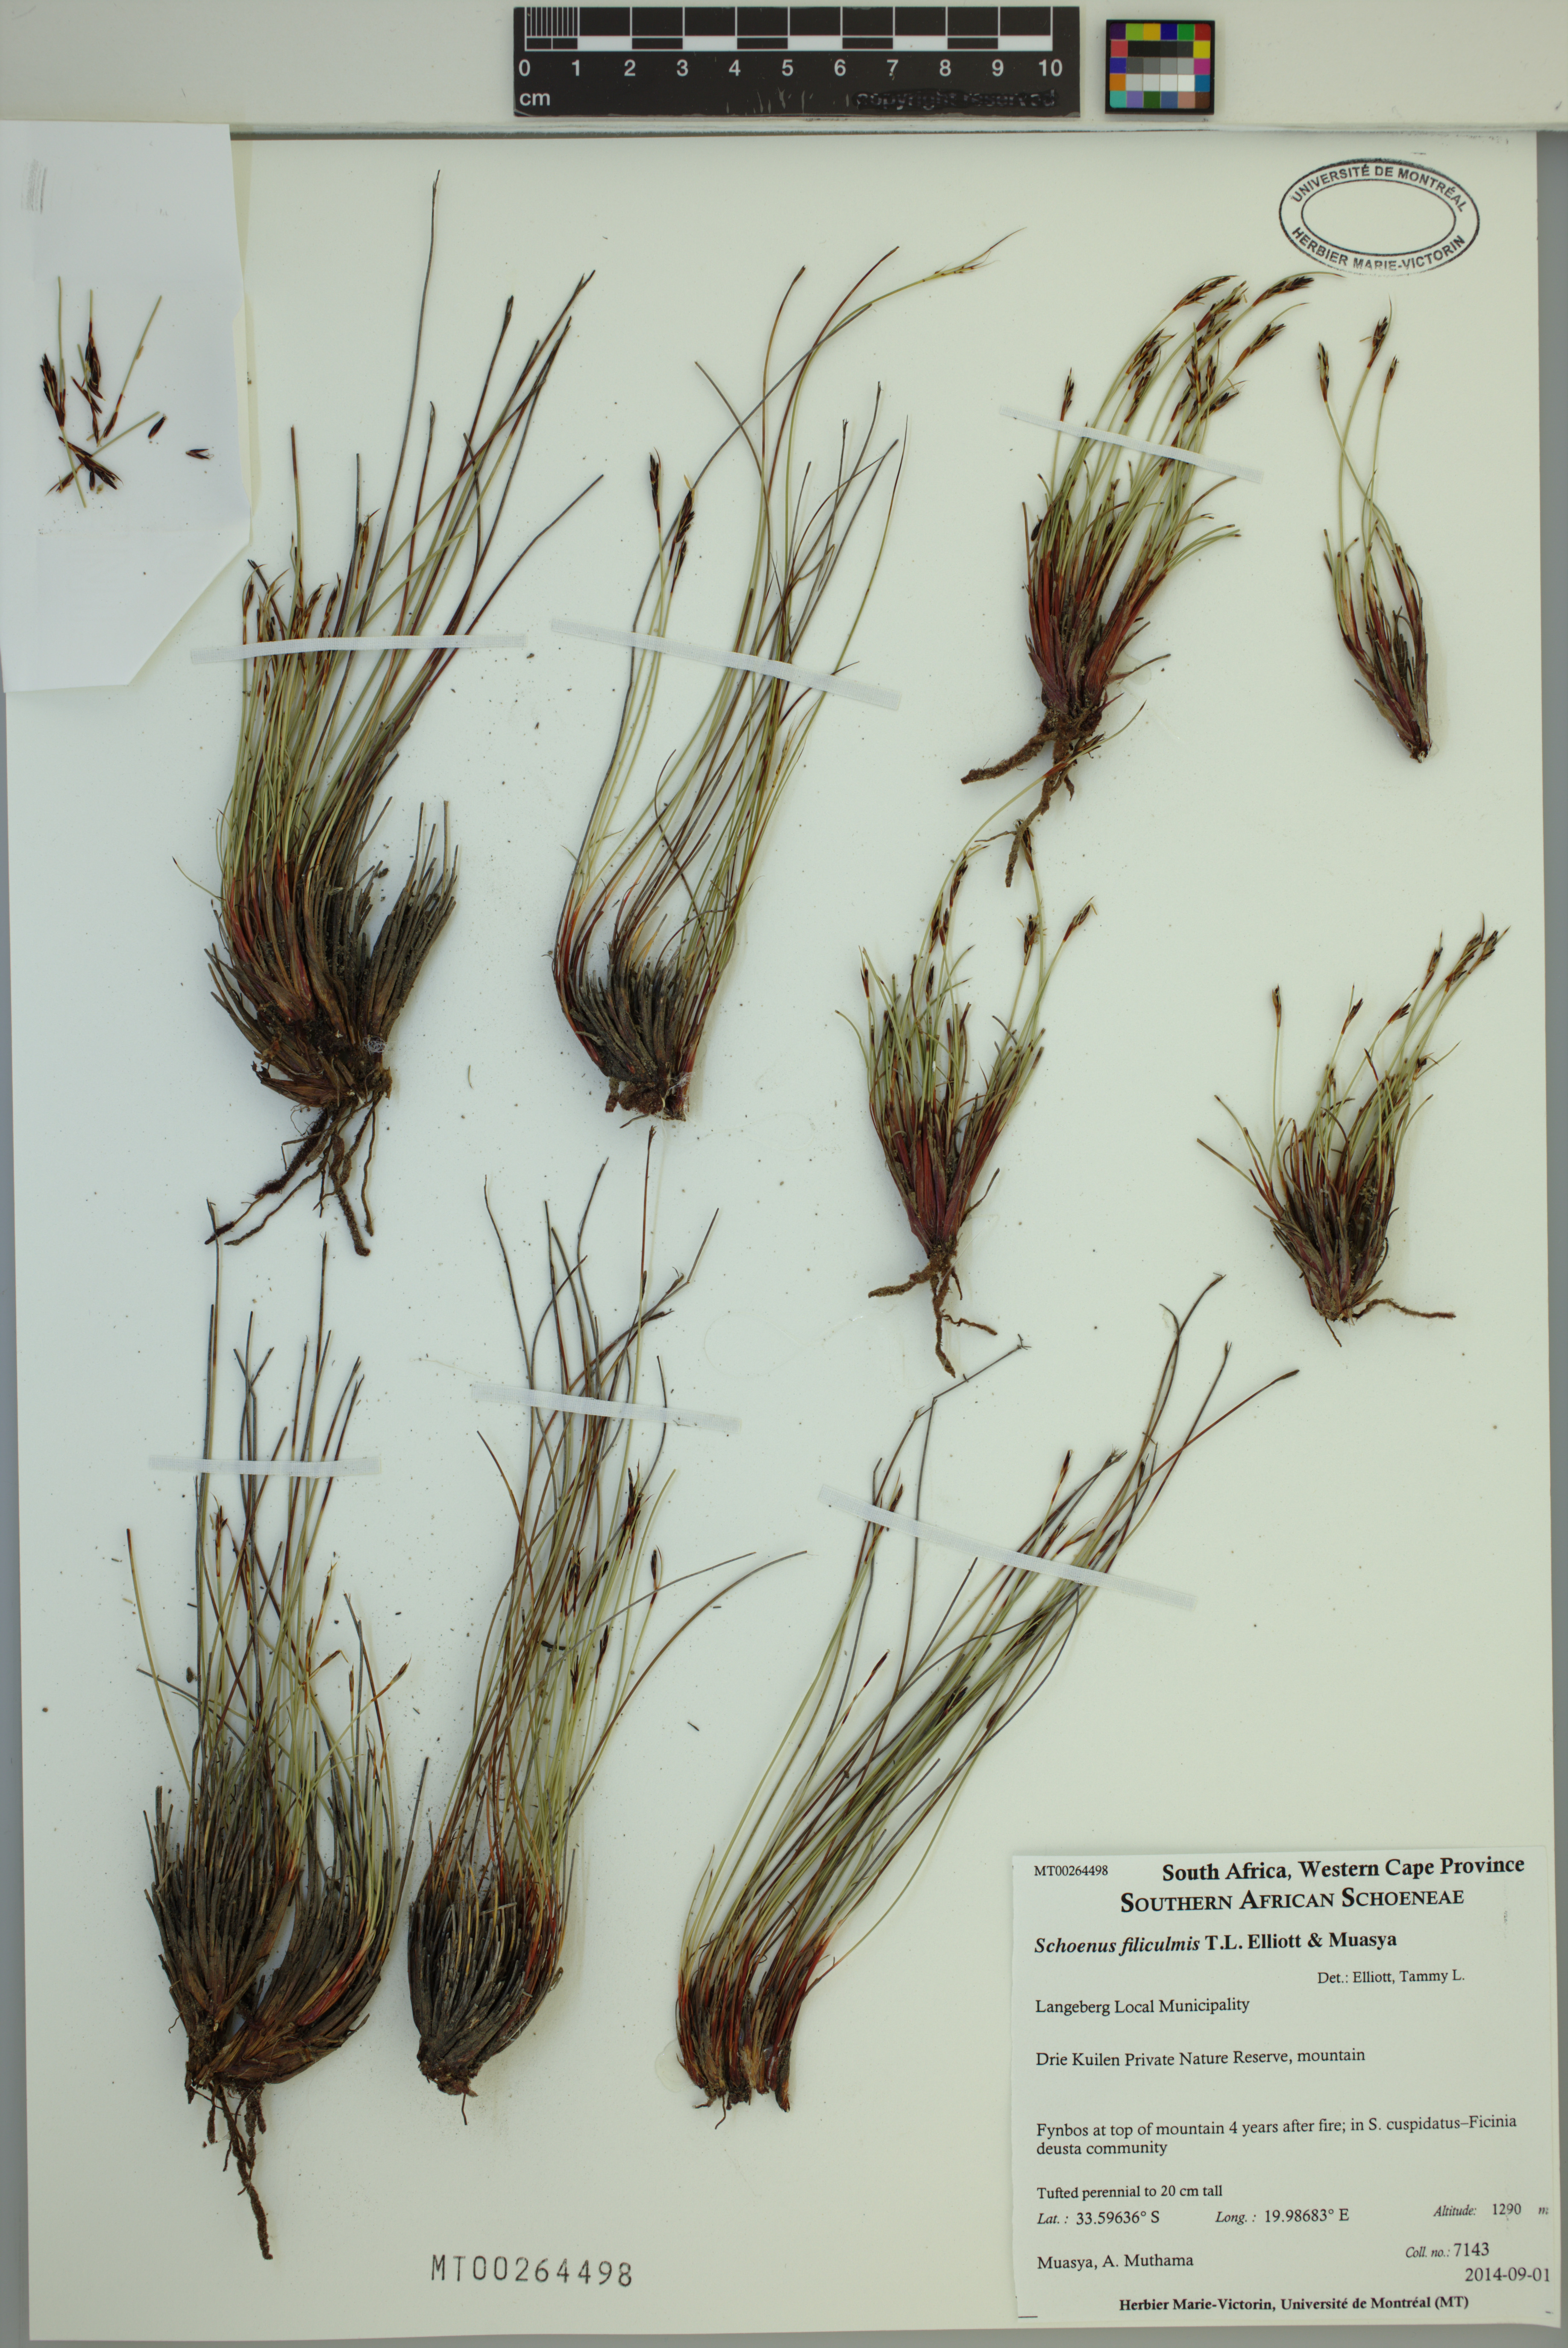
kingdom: Plantae
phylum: Tracheophyta
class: Liliopsida
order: Poales
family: Cyperaceae
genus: Schoenus
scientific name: Schoenus filiculmis
